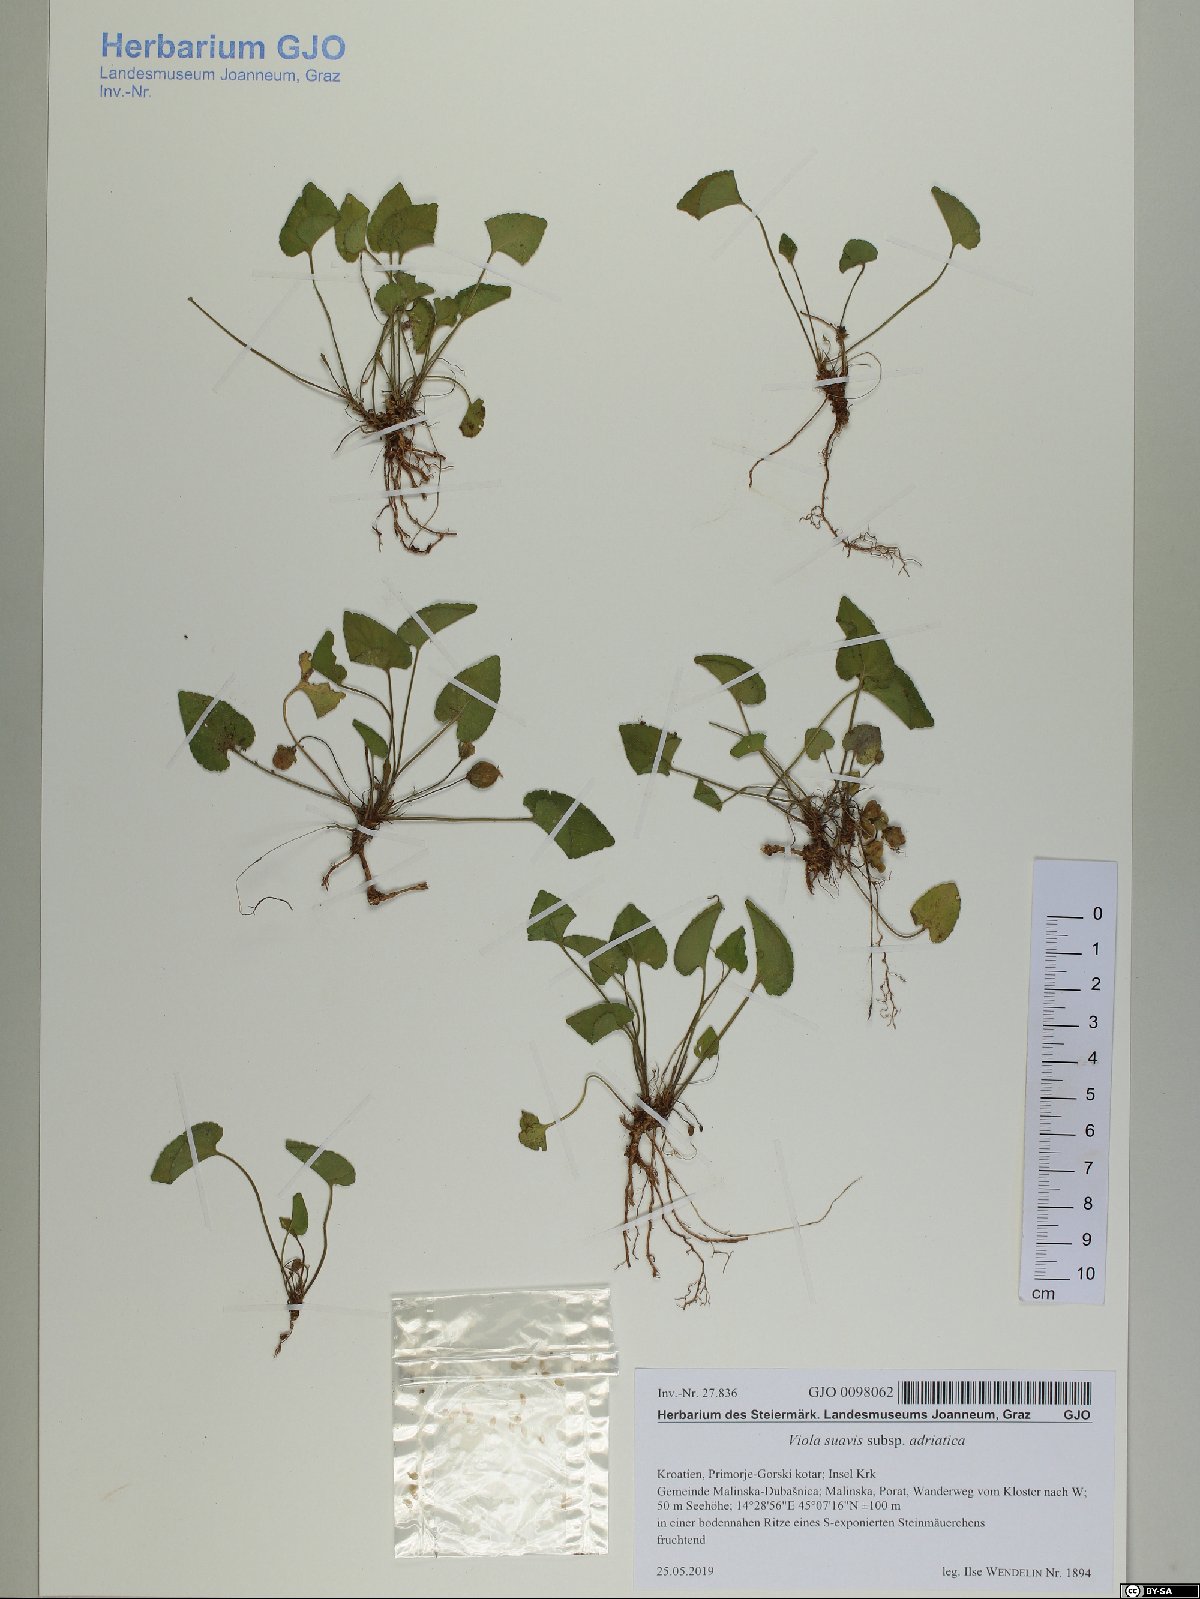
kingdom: Plantae
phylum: Tracheophyta
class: Magnoliopsida
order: Malpighiales
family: Violaceae
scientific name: Violaceae
